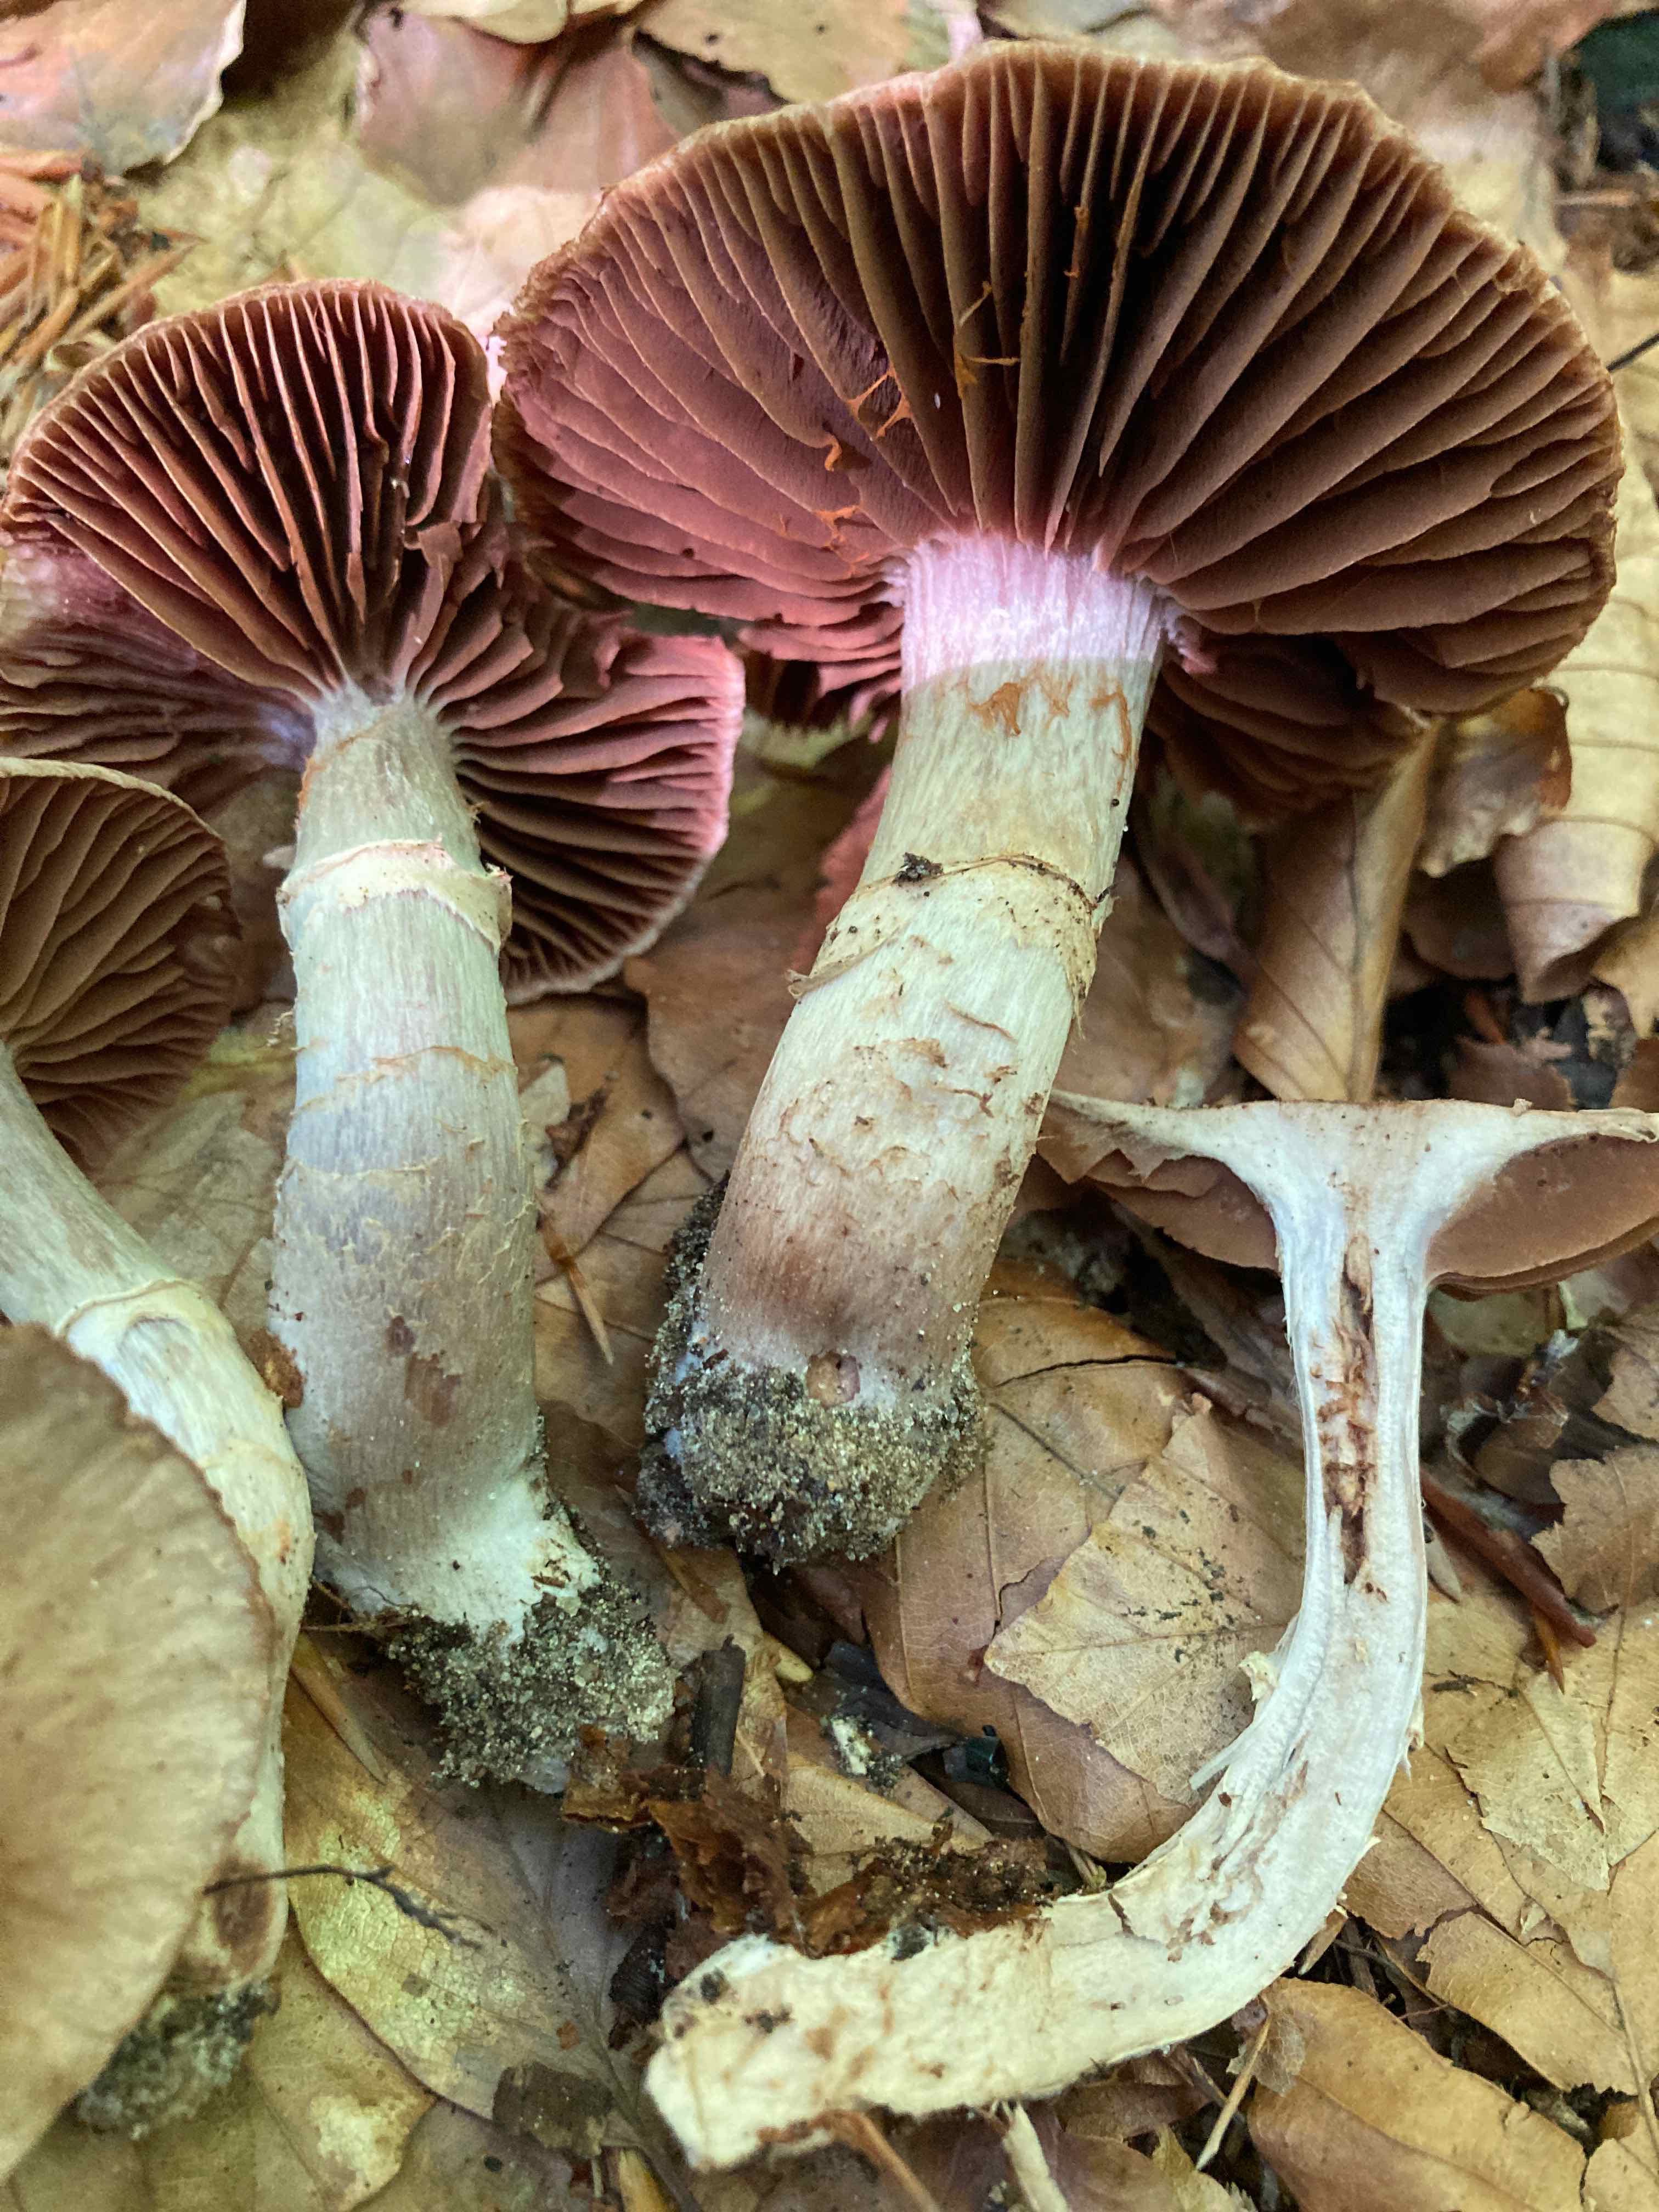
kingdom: Fungi
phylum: Basidiomycota
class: Agaricomycetes
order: Agaricales
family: Cortinariaceae
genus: Cortinarius
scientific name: Cortinarius torvus
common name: champignonagtig slørhat
